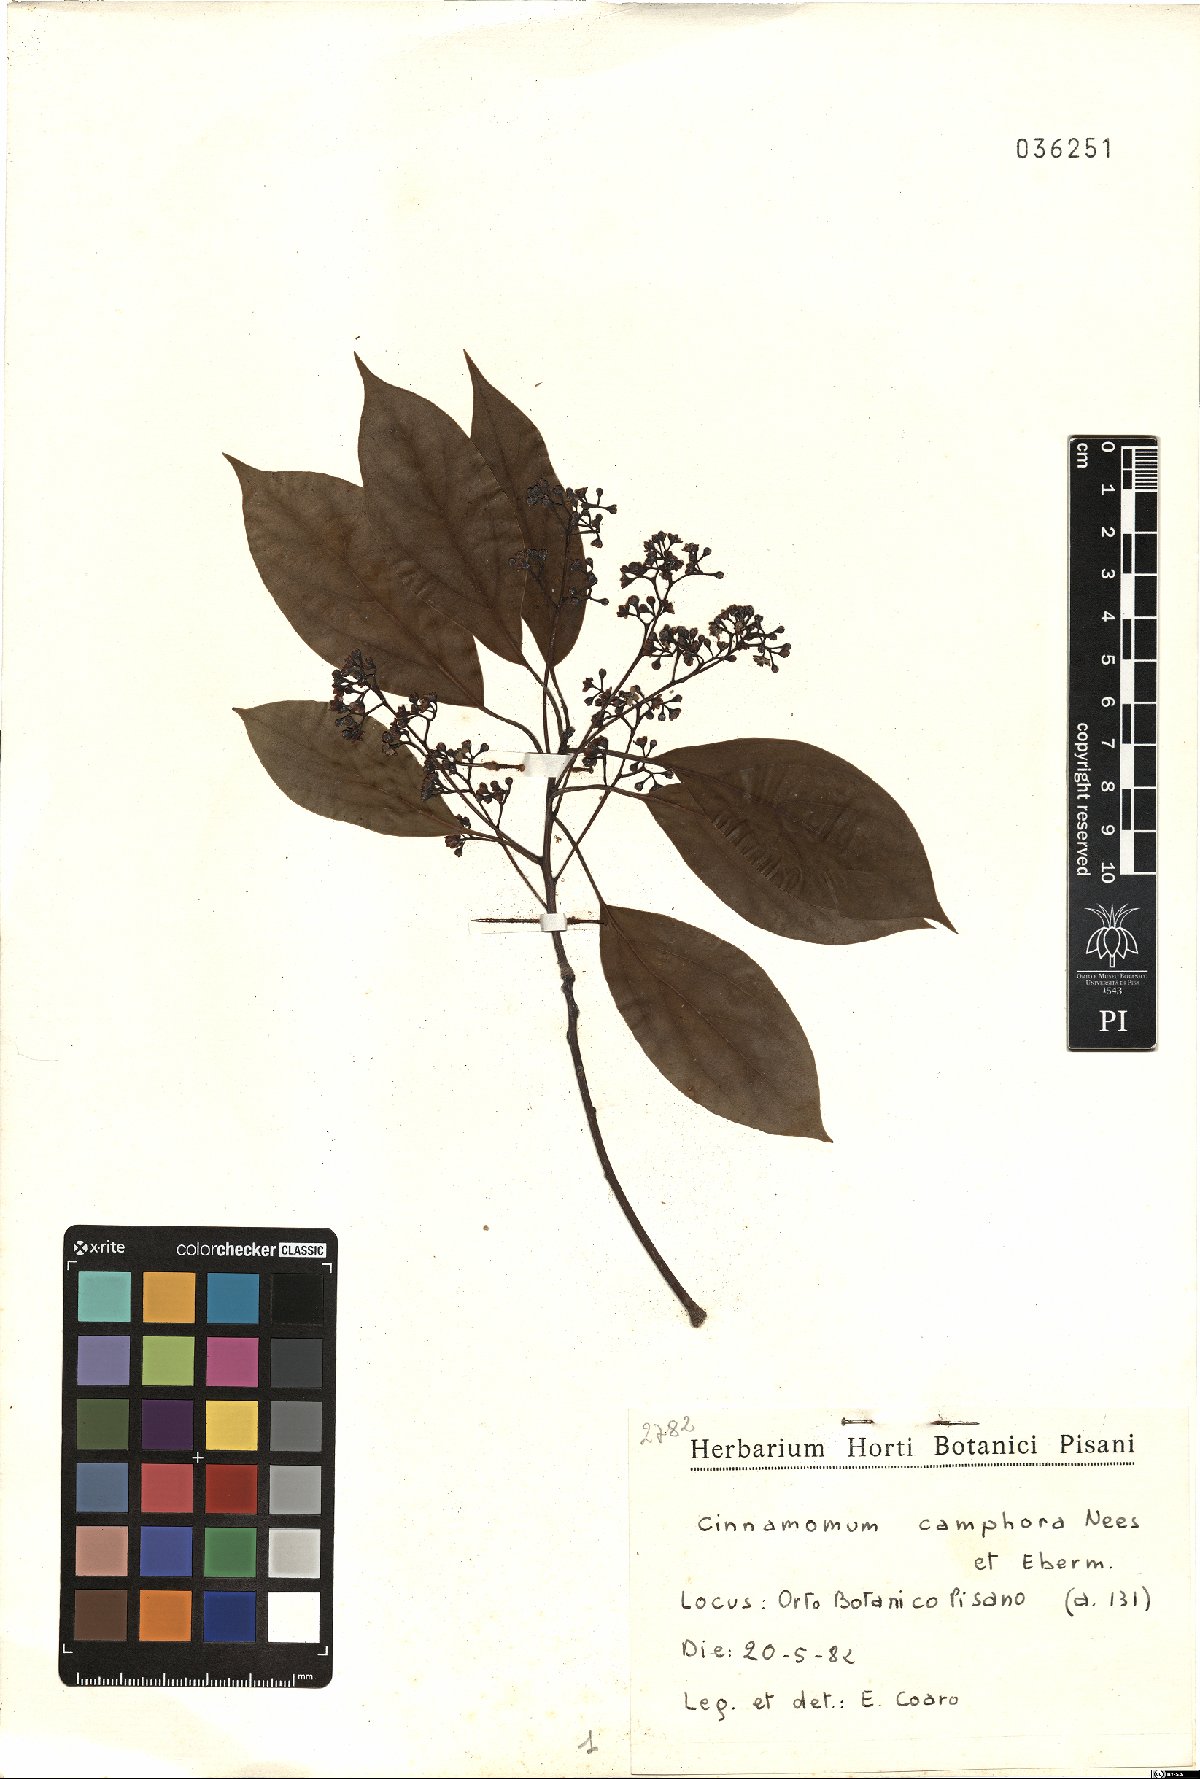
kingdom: Plantae
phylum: Tracheophyta
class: Magnoliopsida
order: Laurales
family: Lauraceae
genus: Cinnamomum
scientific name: Cinnamomum camphora
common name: Camphortree
